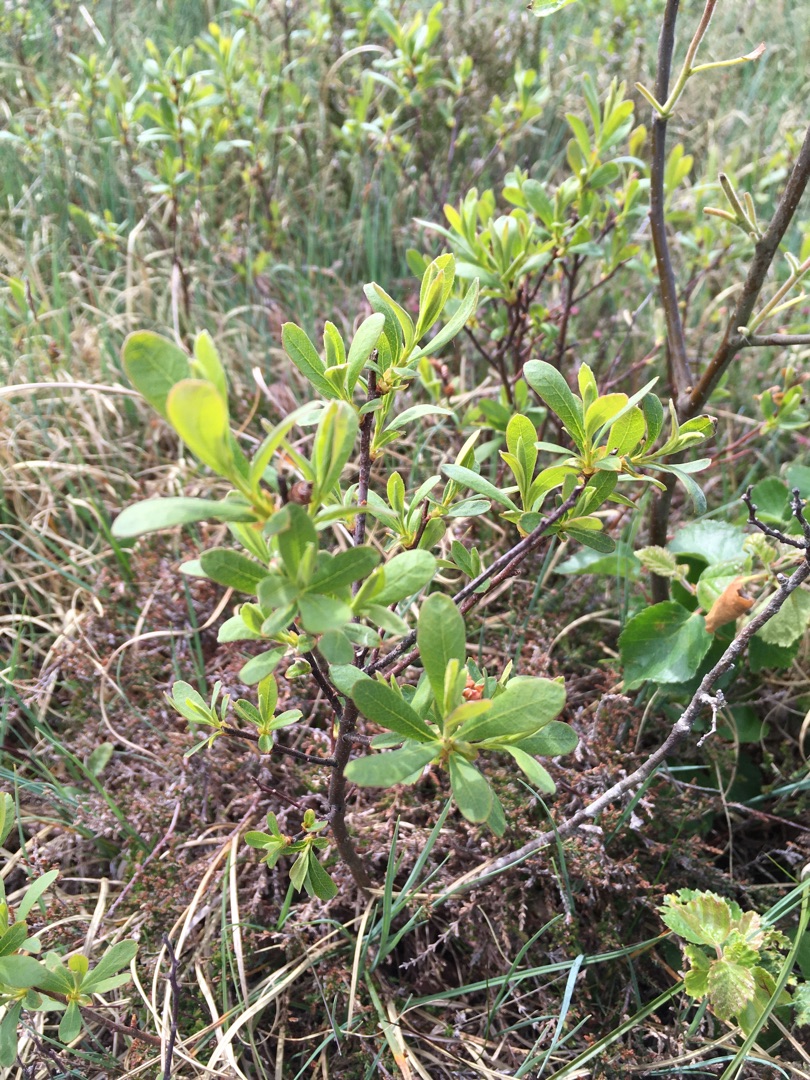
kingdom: Plantae
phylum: Tracheophyta
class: Magnoliopsida
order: Fagales
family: Myricaceae
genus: Myrica
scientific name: Myrica gale
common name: Pors
